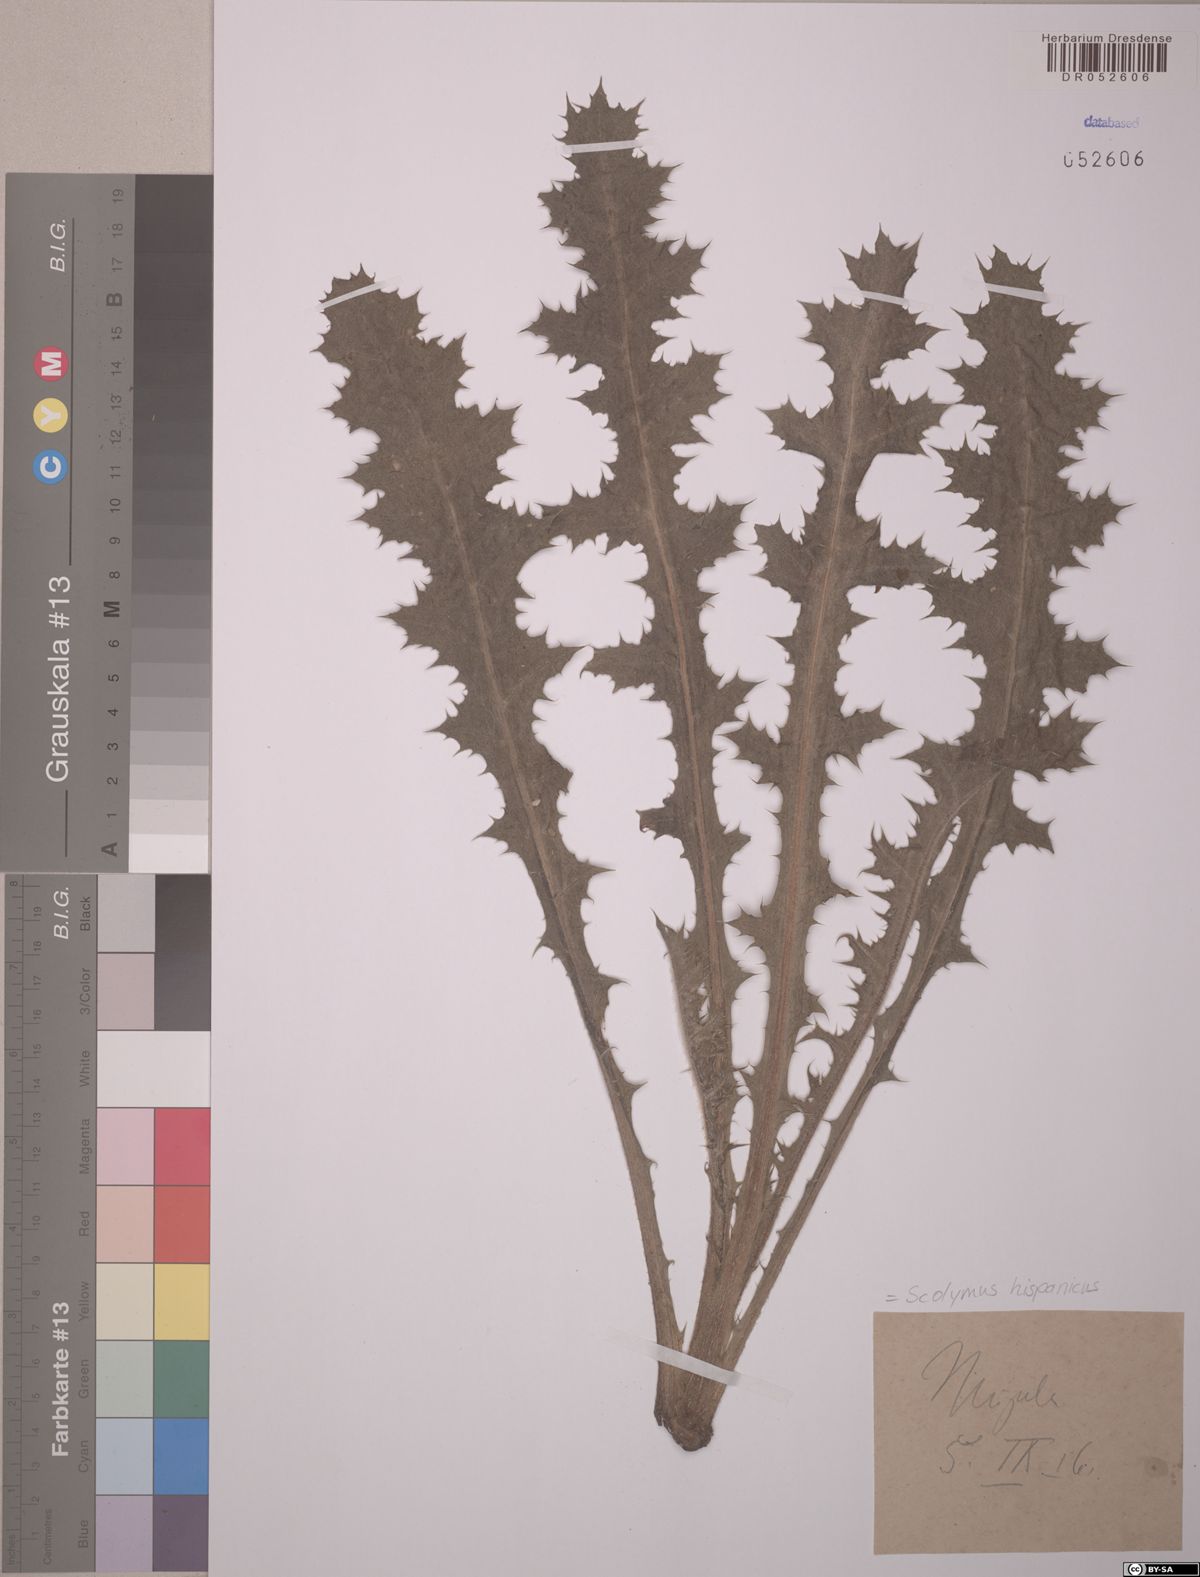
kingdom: Plantae
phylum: Tracheophyta
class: Magnoliopsida
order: Asterales
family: Asteraceae
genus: Scolymus
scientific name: Scolymus hispanicus
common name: Golden thistle
